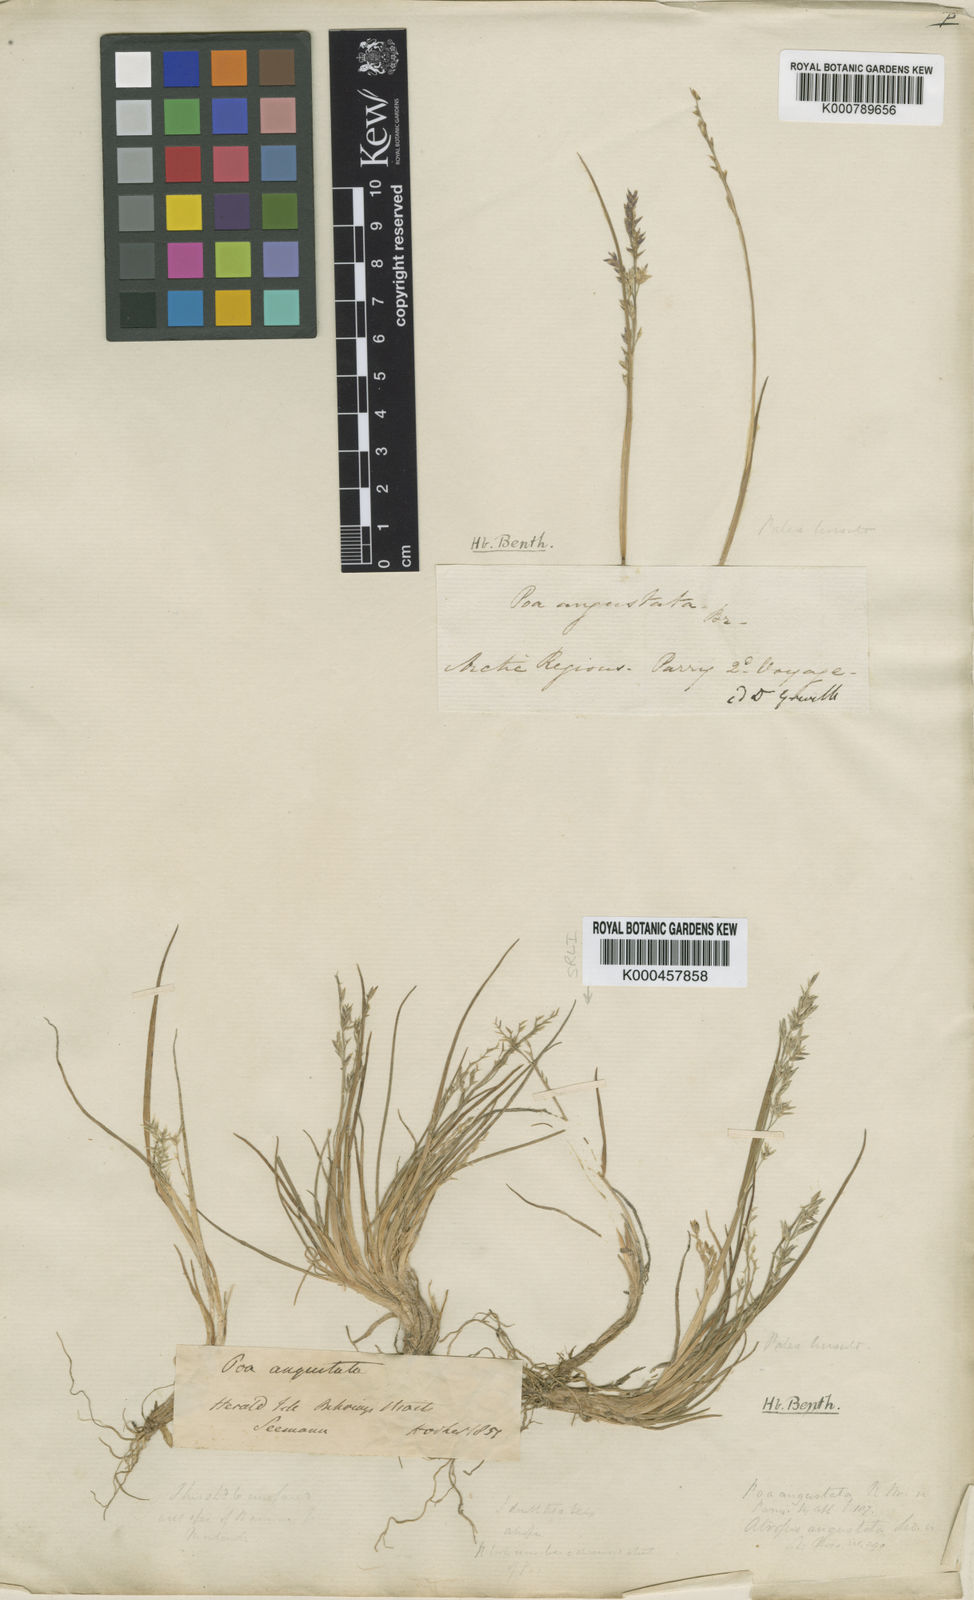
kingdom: Plantae
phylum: Tracheophyta
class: Liliopsida
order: Poales
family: Poaceae
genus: Puccinellia
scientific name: Puccinellia angustata
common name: Narrow alkaligrass
